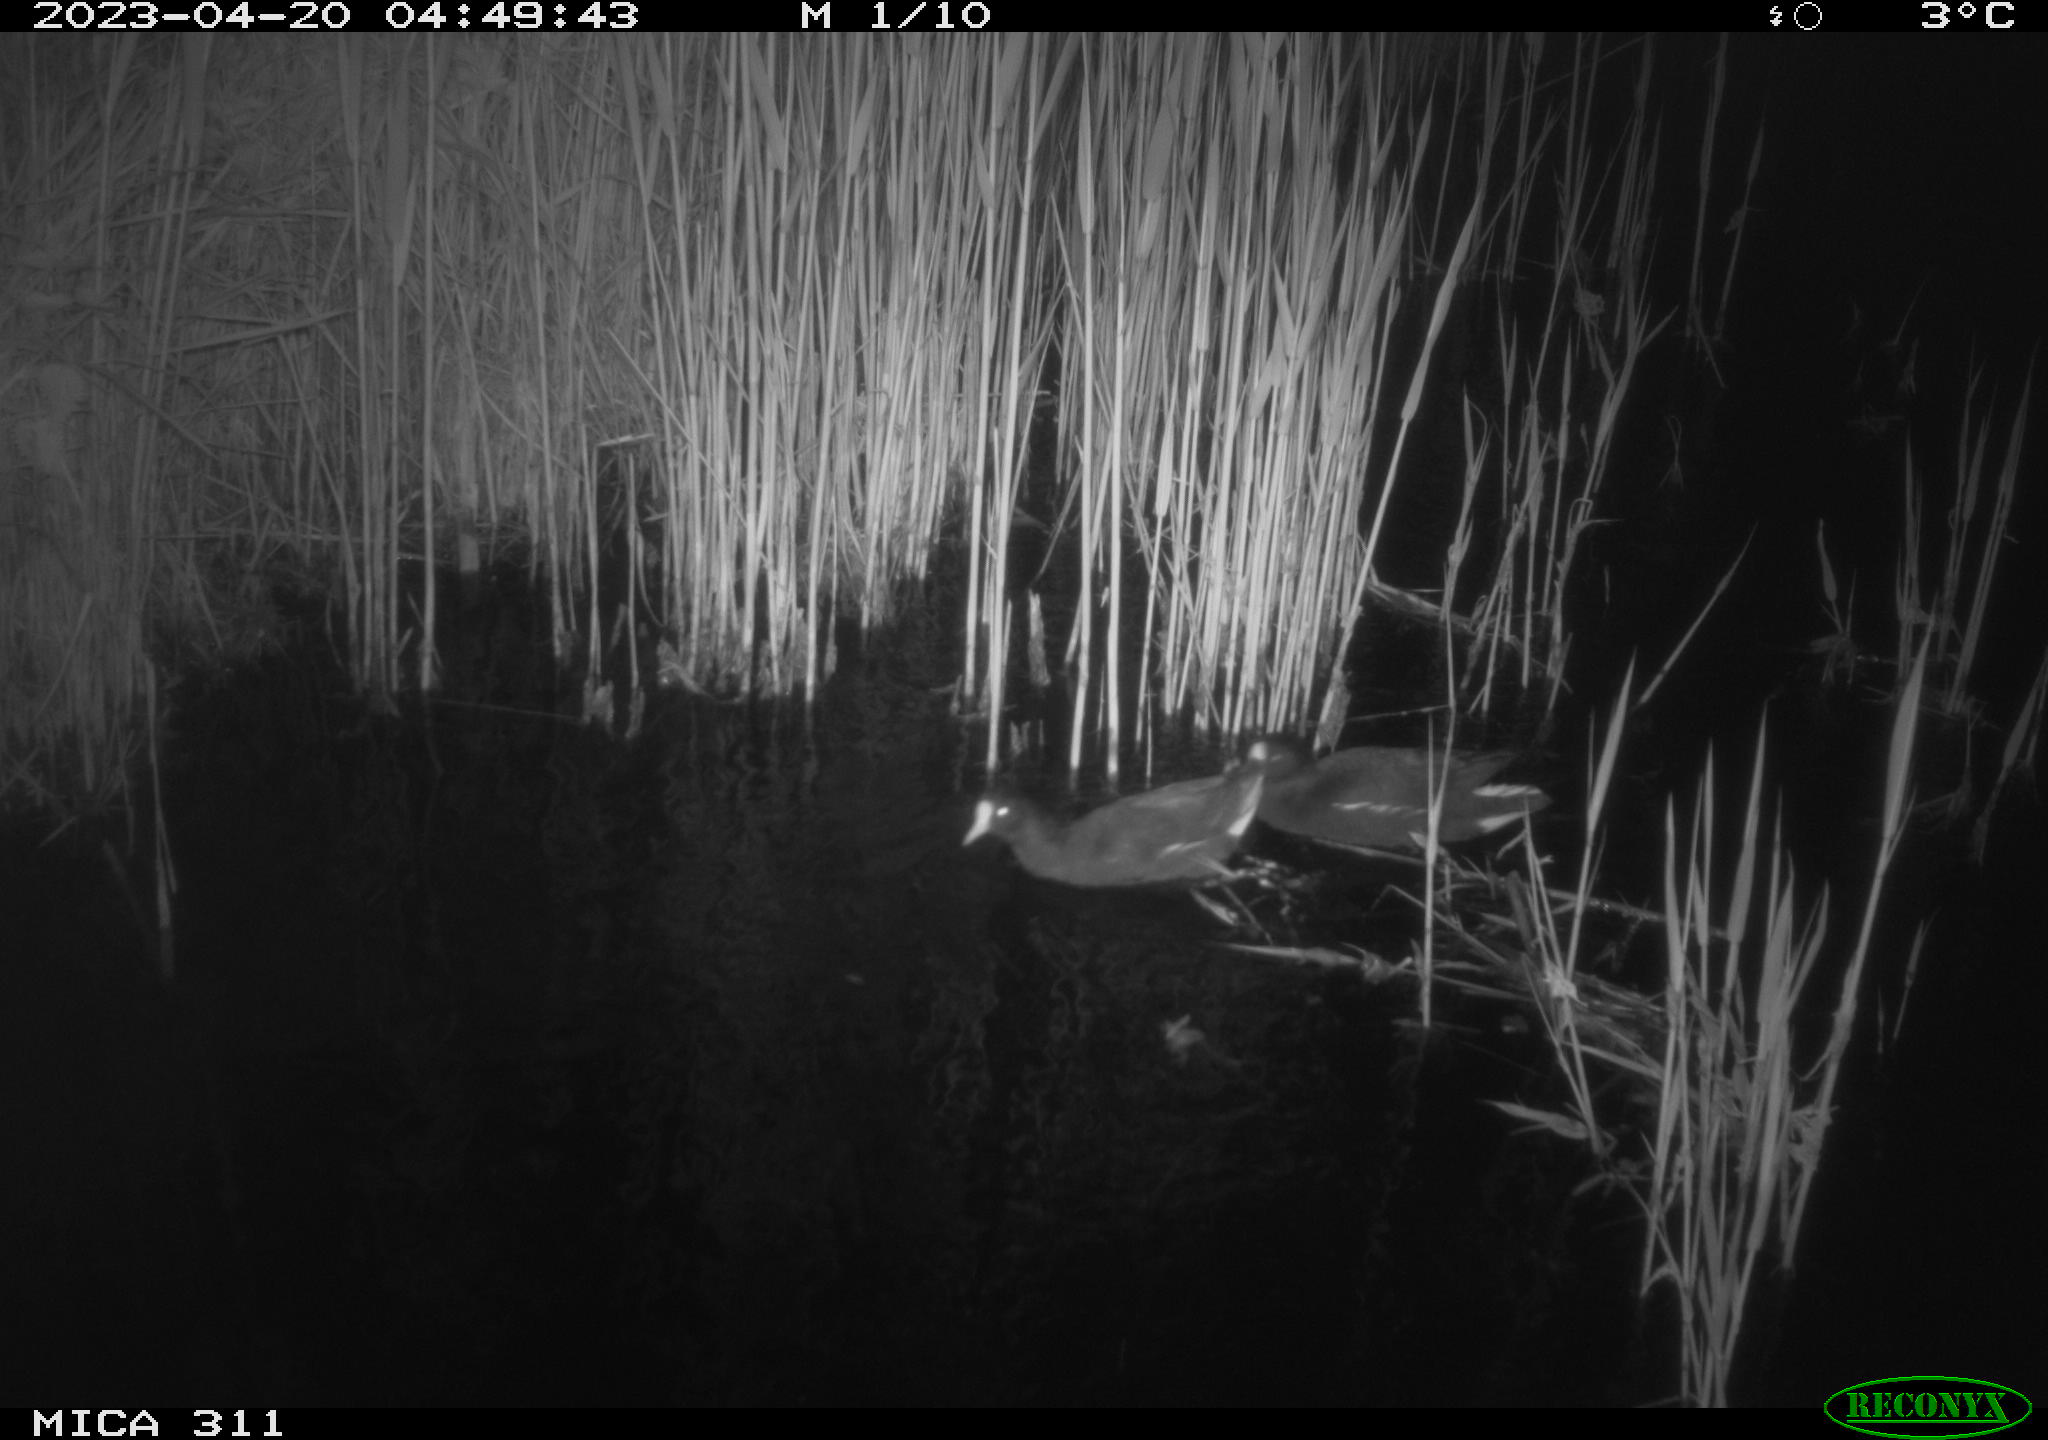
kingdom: Animalia
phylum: Chordata
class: Aves
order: Anseriformes
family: Anatidae
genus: Anas
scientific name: Anas
